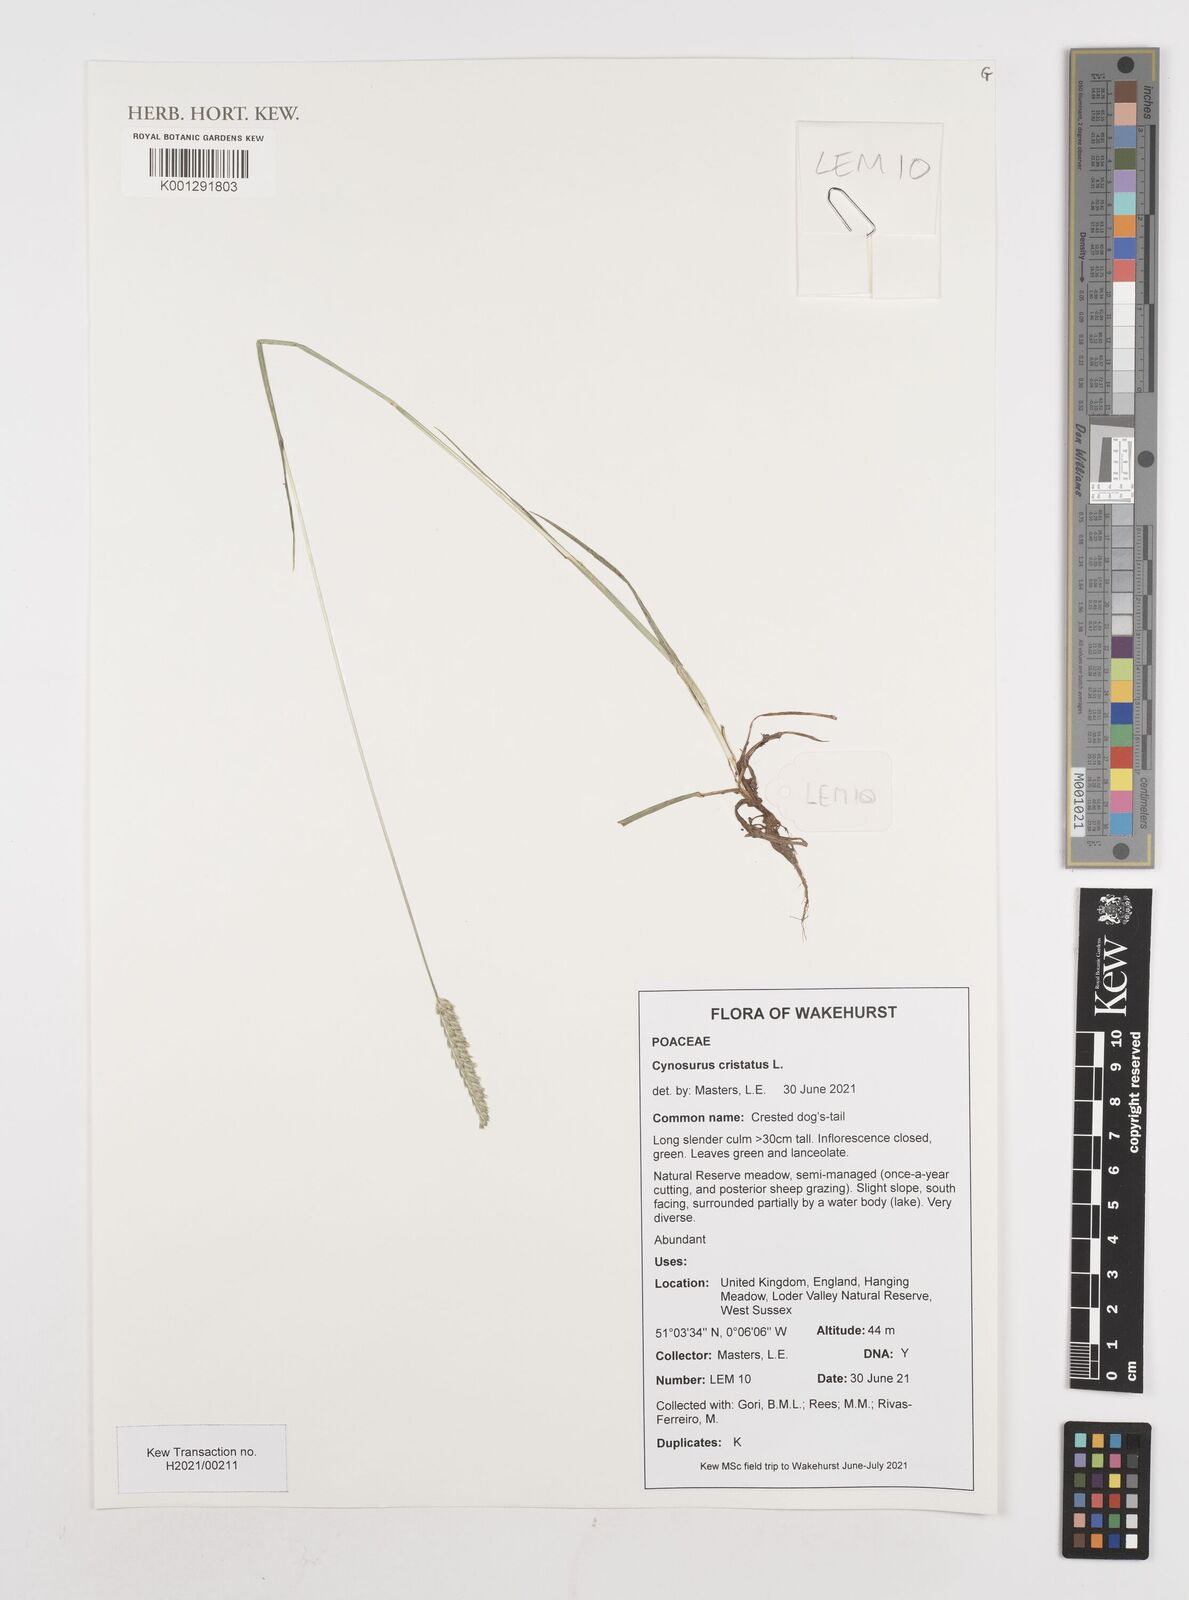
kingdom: Plantae
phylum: Tracheophyta
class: Liliopsida
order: Poales
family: Poaceae
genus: Cynosurus
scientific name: Cynosurus cristatus
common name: Crested dog's-tail
